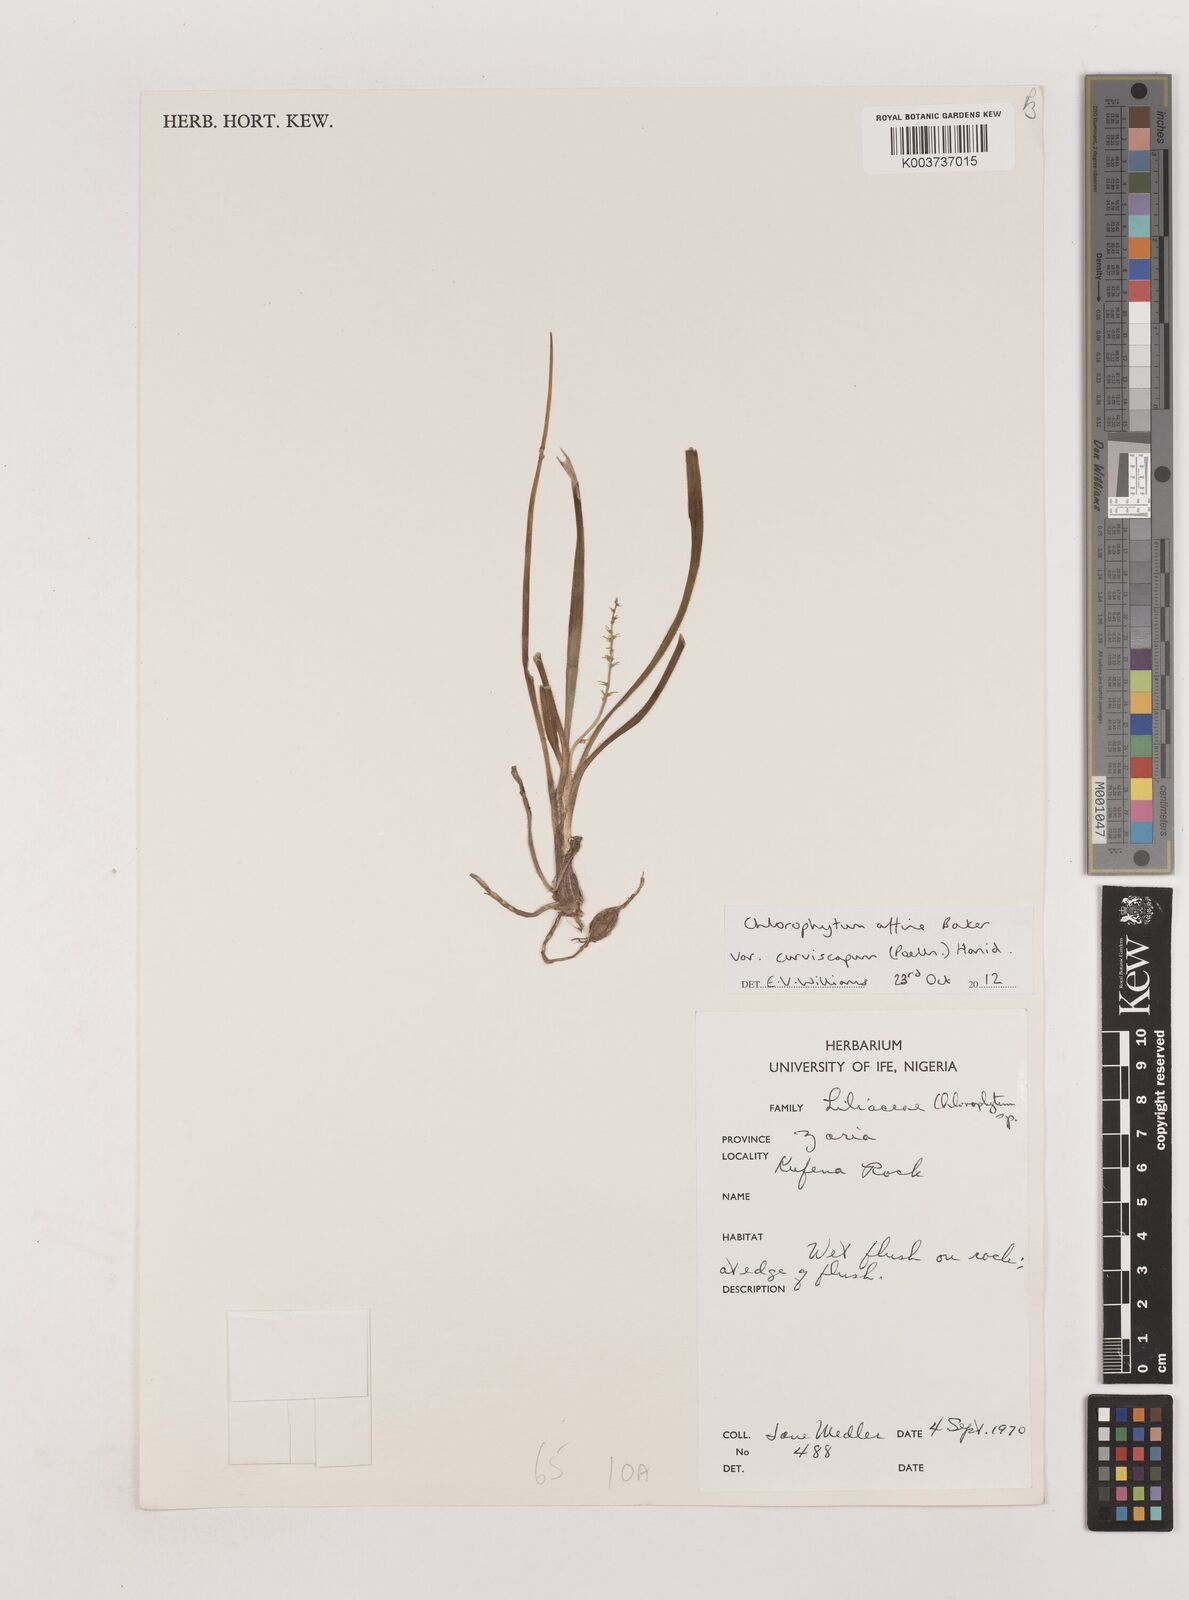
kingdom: Plantae
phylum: Tracheophyta
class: Liliopsida
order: Asparagales
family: Asparagaceae
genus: Chlorophytum
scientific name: Chlorophytum tordense
